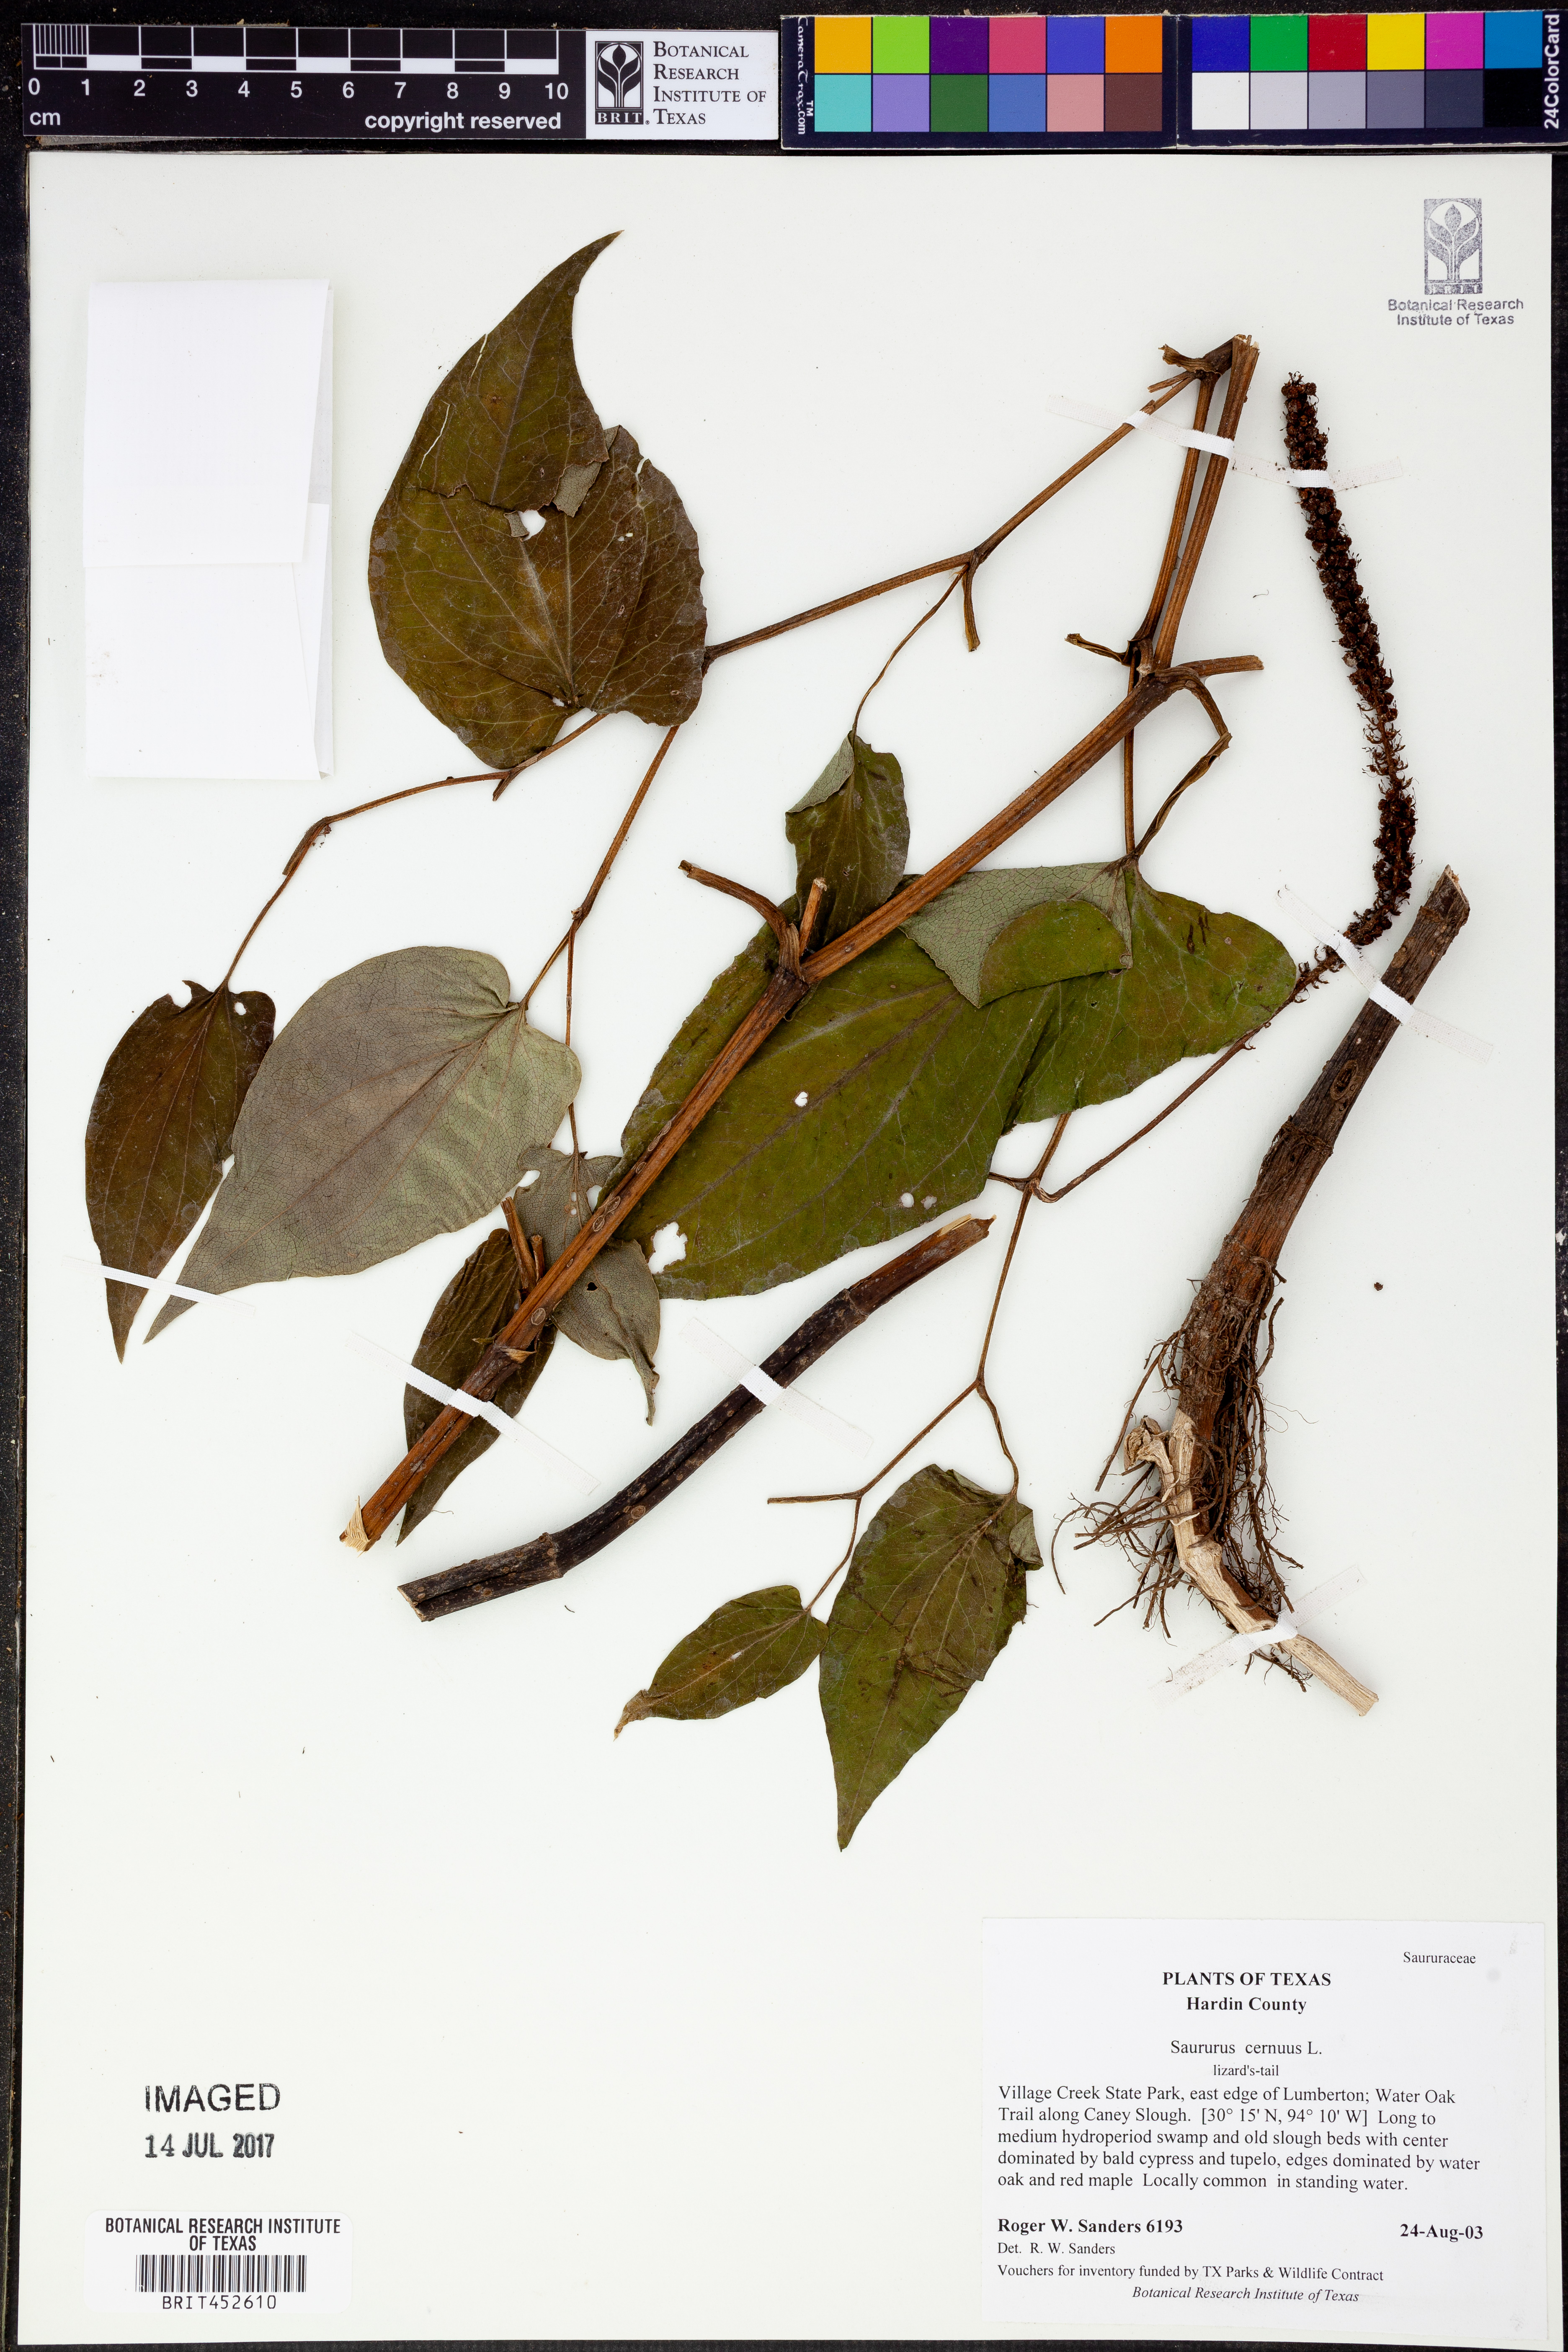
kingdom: Plantae
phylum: Tracheophyta
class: Magnoliopsida
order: Piperales
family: Saururaceae
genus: Saururus
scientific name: Saururus cernuus
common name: Lizard's-tail
